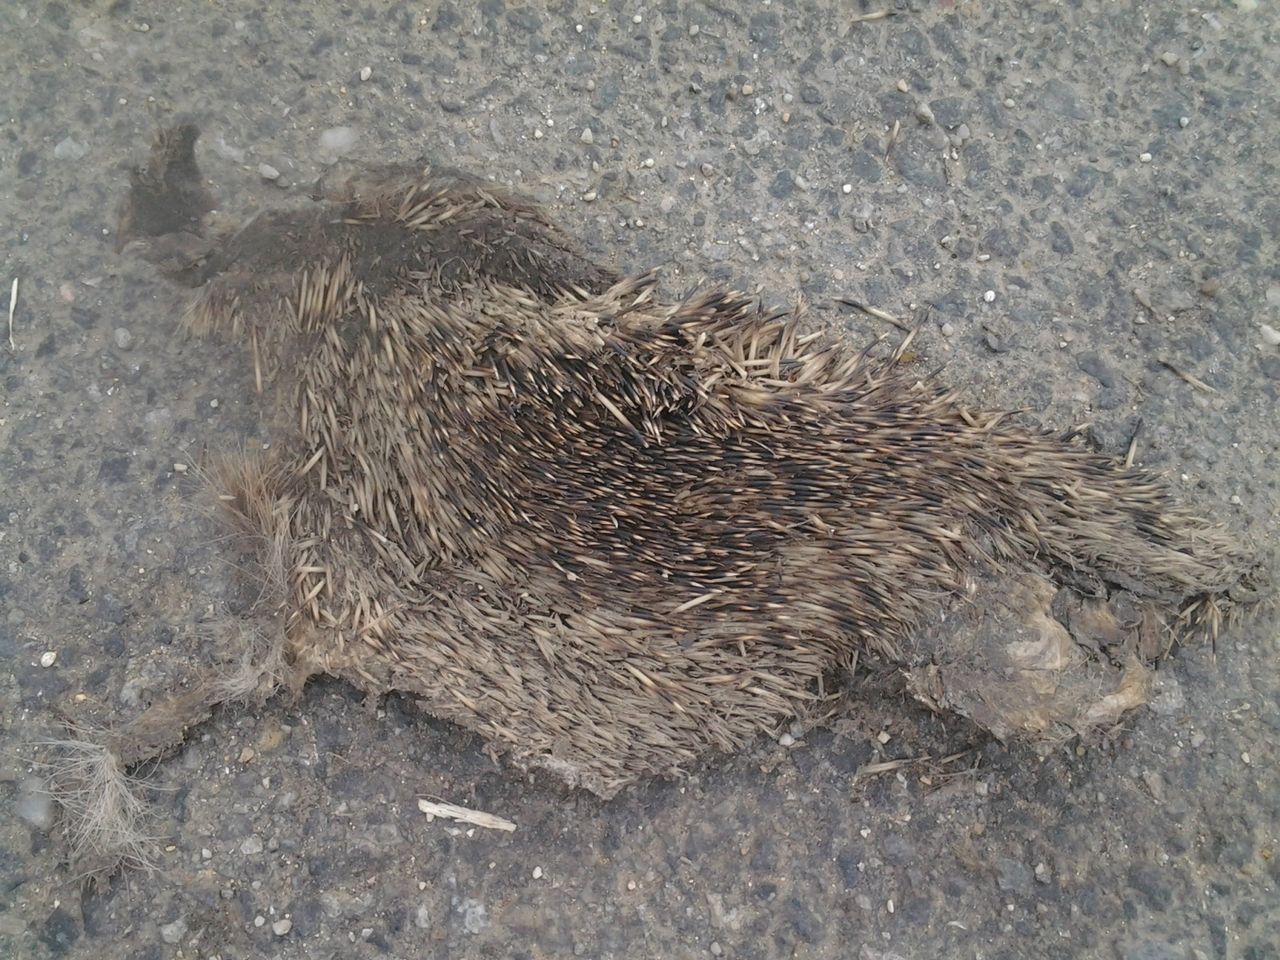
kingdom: Animalia
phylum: Chordata
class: Mammalia
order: Erinaceomorpha
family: Erinaceidae
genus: Erinaceus
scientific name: Erinaceus
